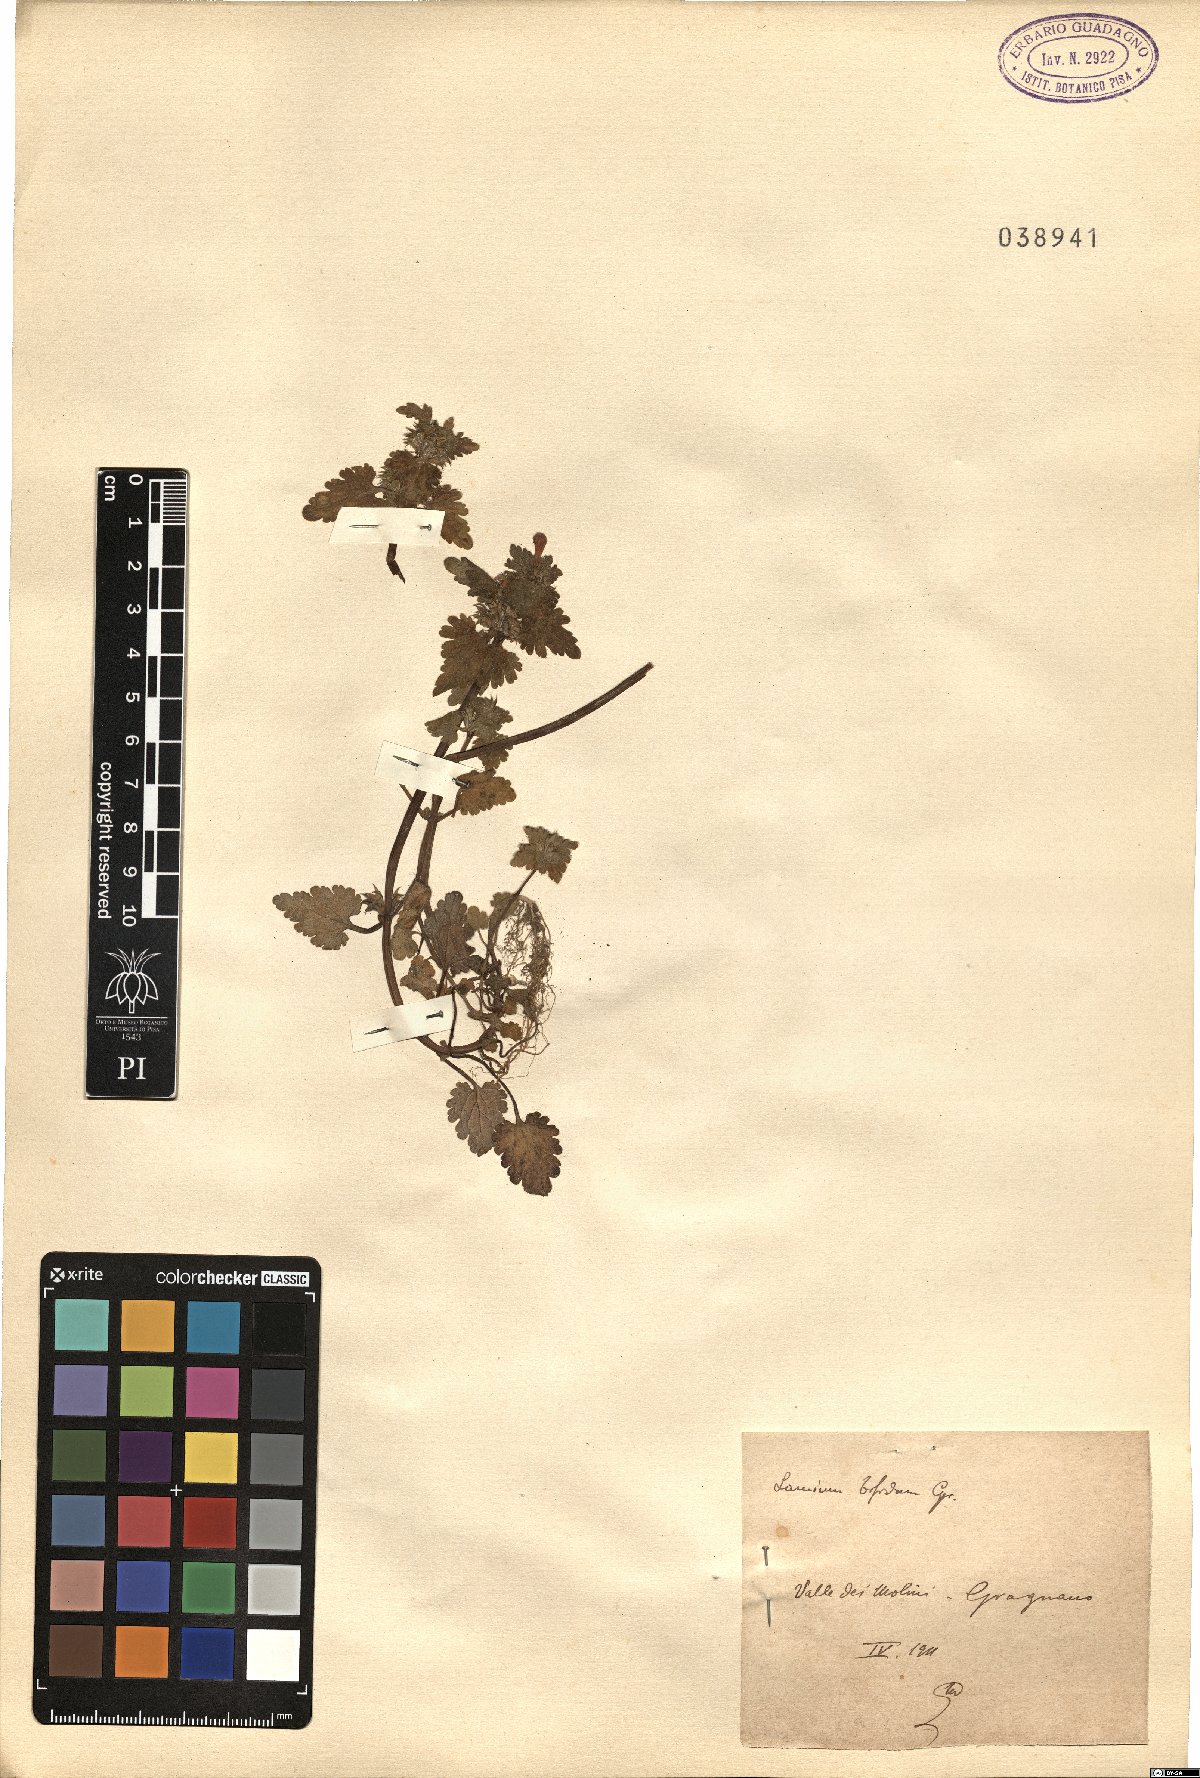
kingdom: Plantae
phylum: Tracheophyta
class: Magnoliopsida
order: Lamiales
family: Lamiaceae
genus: Lamium
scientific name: Lamium bifidum
